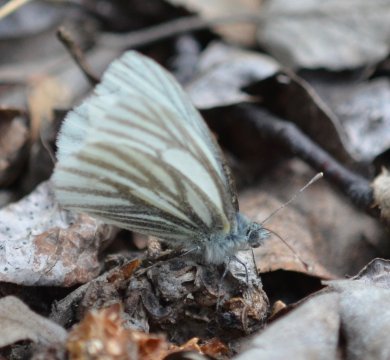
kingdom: Animalia
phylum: Arthropoda
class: Insecta
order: Lepidoptera
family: Pieridae
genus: Pieris
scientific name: Pieris angelika
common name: Arctic White
